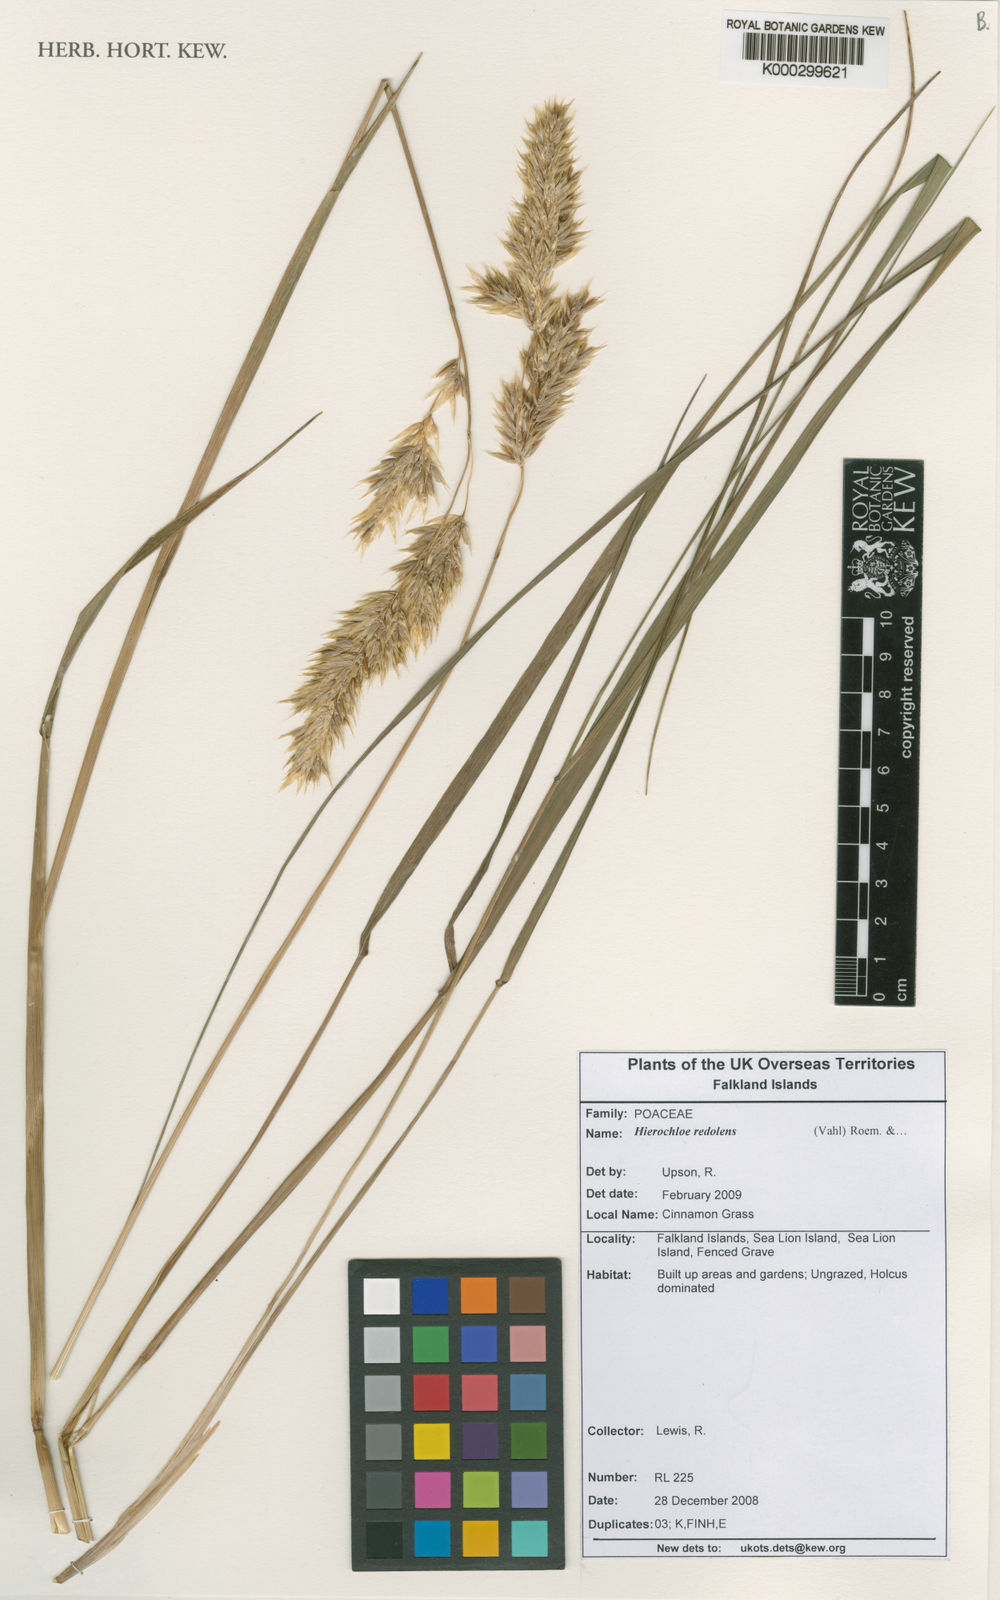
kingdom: Plantae
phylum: Tracheophyta
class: Liliopsida
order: Poales
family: Poaceae
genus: Anthoxanthum
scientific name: Anthoxanthum redolens
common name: Sweet holy grass
